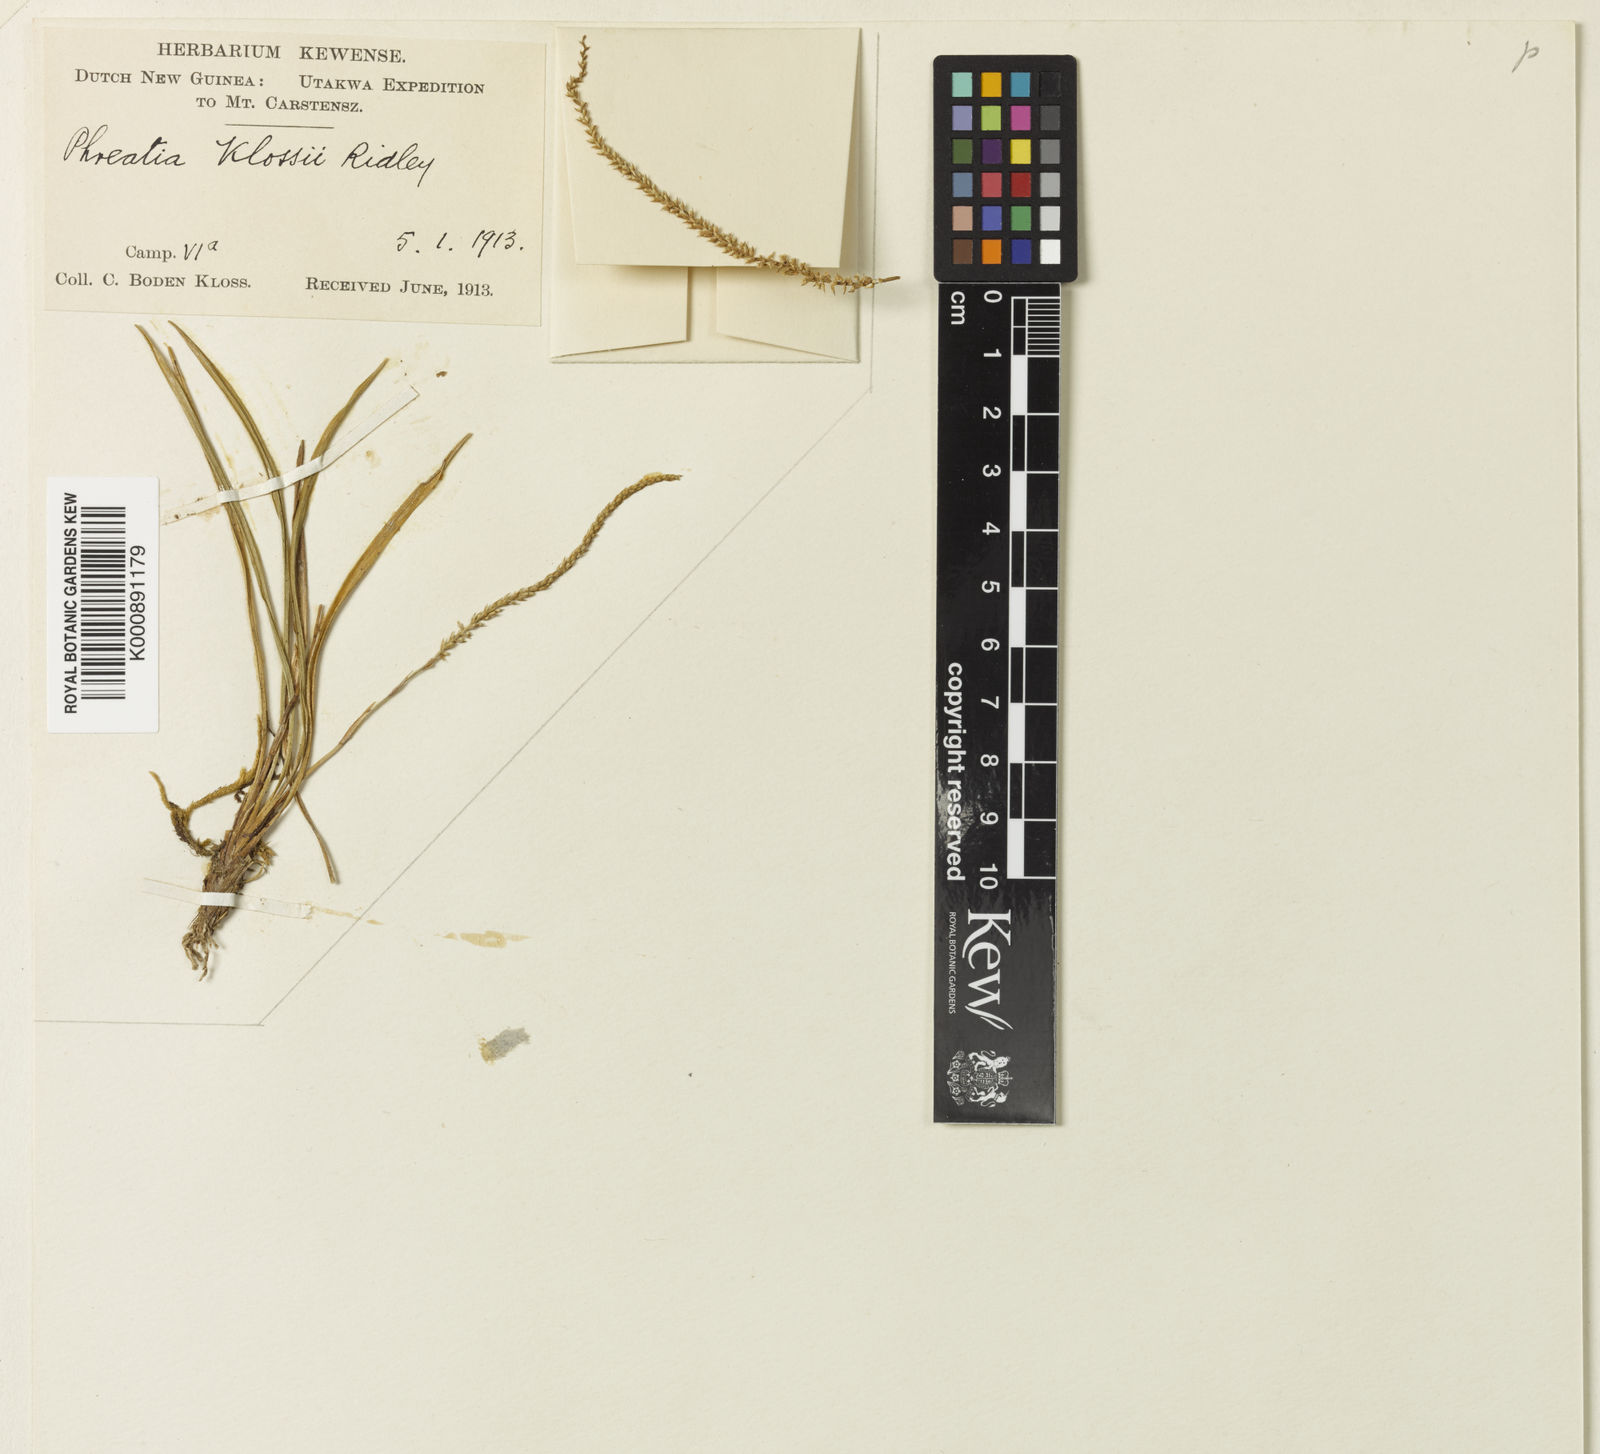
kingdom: Plantae
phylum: Tracheophyta
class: Liliopsida
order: Asparagales
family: Orchidaceae
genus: Phreatia
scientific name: Phreatia klossii
